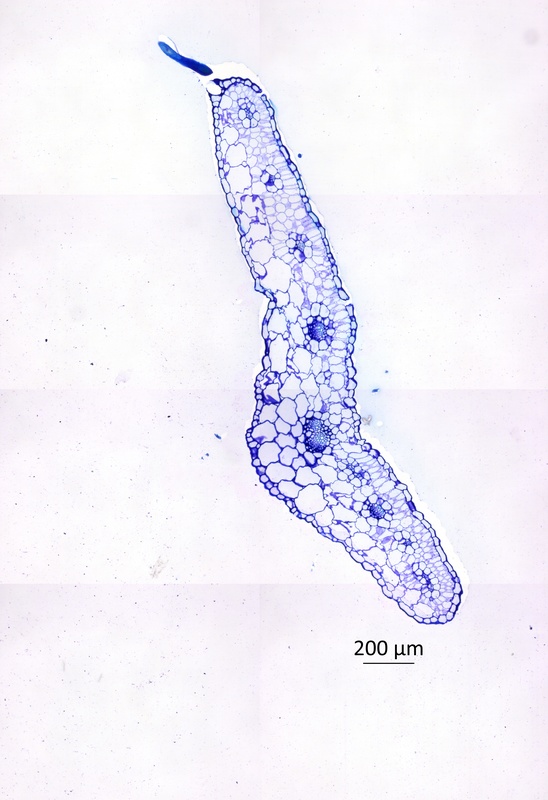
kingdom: Plantae
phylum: Tracheophyta
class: Magnoliopsida
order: Zygophyllales
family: Zygophyllaceae
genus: Tribulopis
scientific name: Tribulopis bicolor
